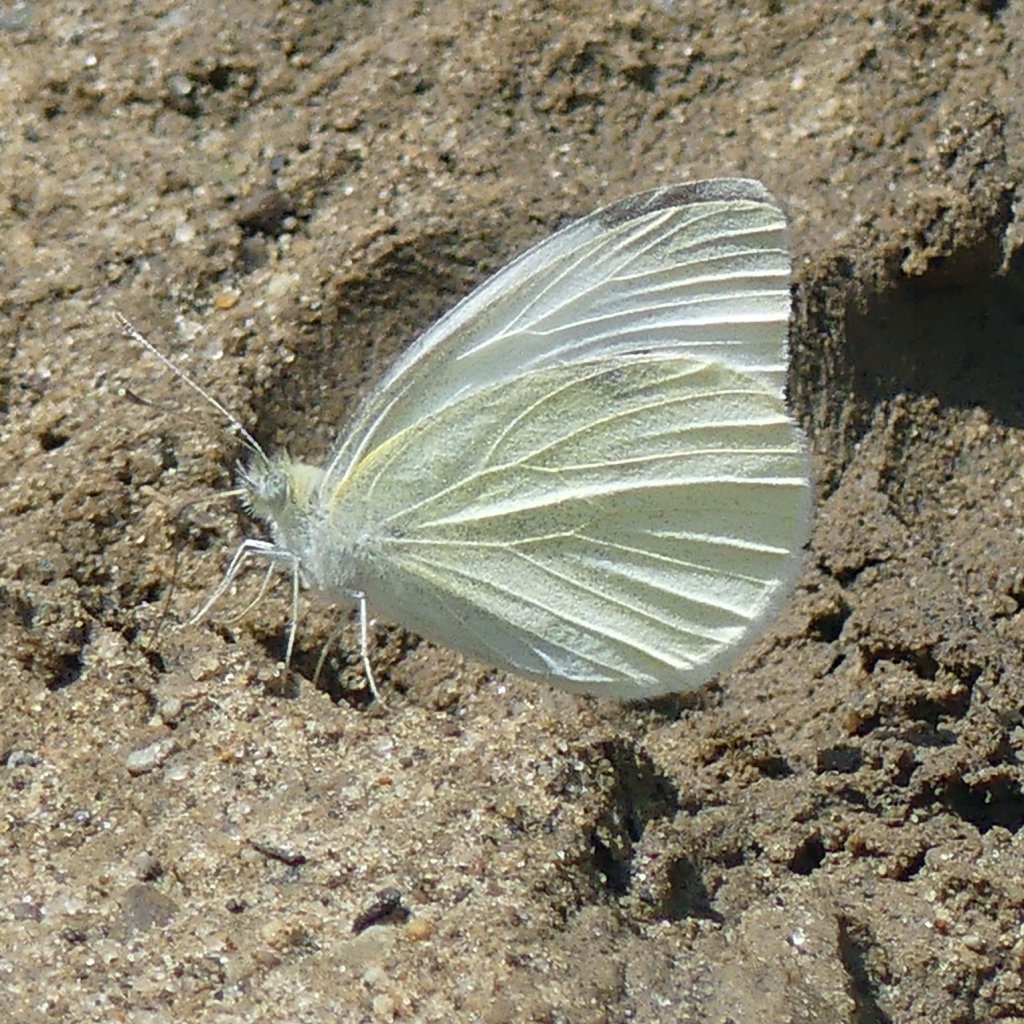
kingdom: Animalia
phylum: Arthropoda
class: Insecta
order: Lepidoptera
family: Pieridae
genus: Pieris
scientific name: Pieris rapae
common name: Cabbage White
